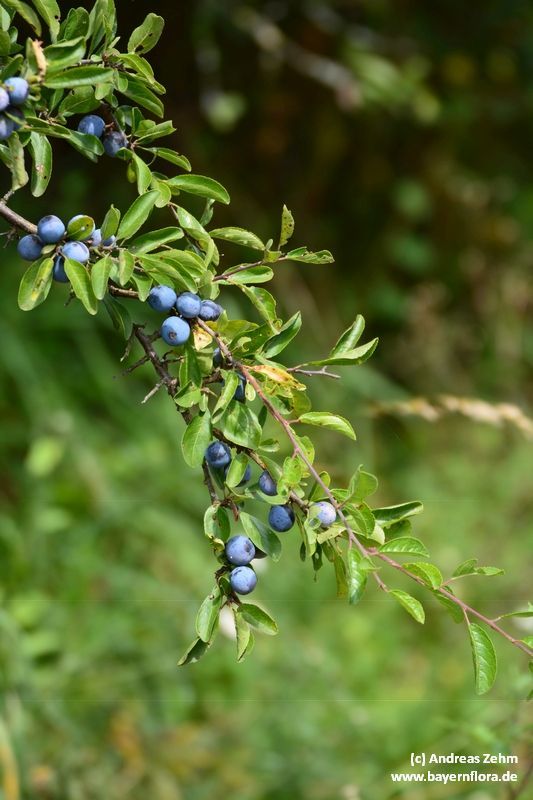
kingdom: Plantae
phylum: Tracheophyta
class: Magnoliopsida
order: Rosales
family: Rosaceae
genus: Prunus
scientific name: Prunus spinosa
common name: Blackthorn
